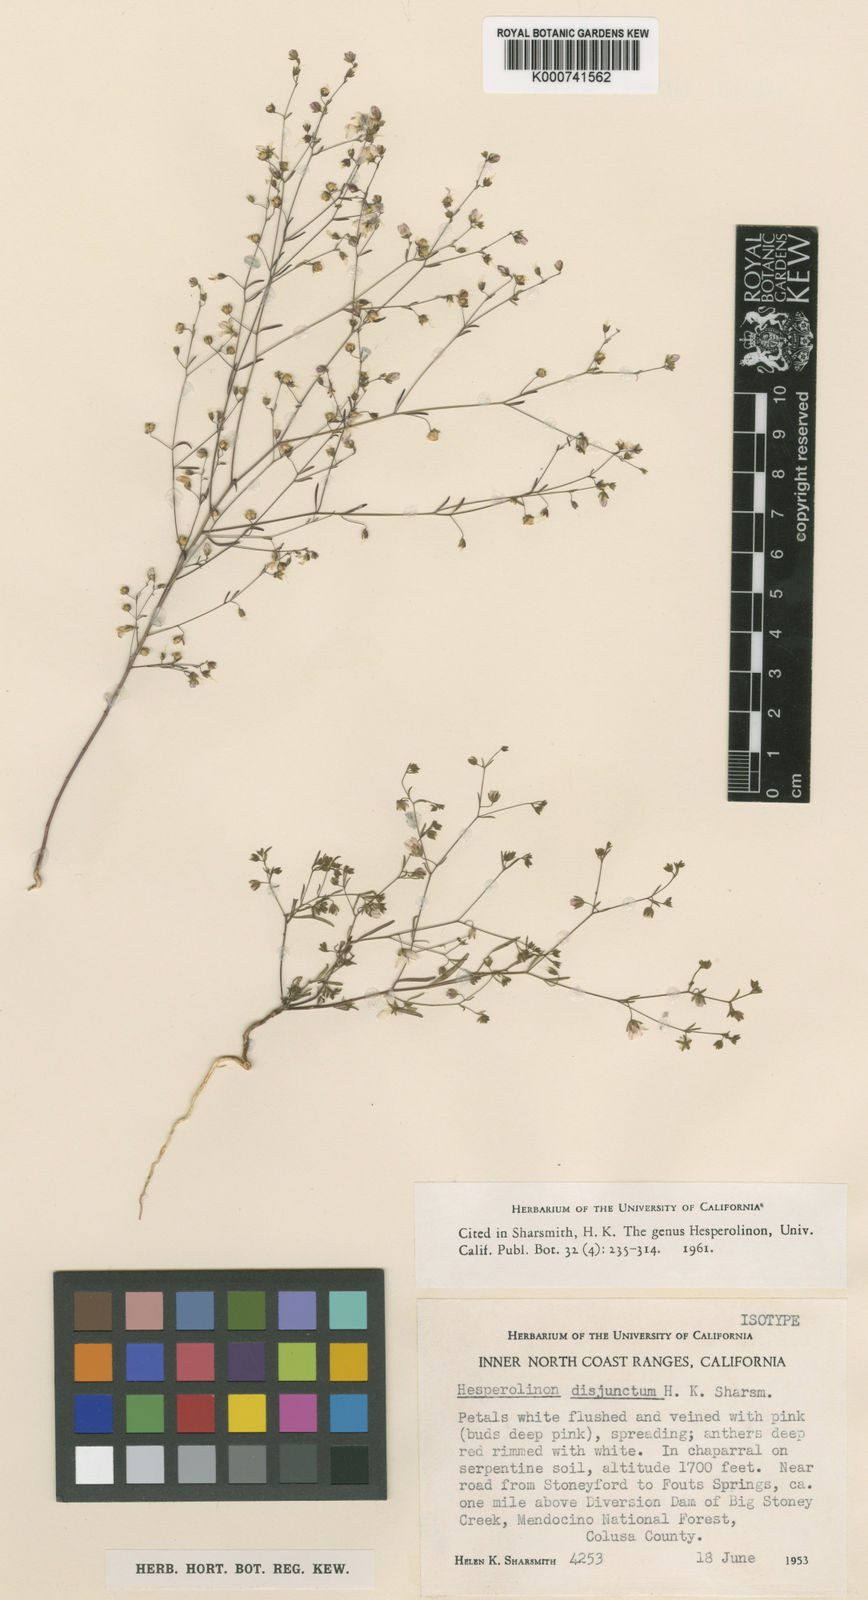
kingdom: Plantae
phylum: Tracheophyta
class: Magnoliopsida
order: Malpighiales
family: Linaceae
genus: Hesperolinon
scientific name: Hesperolinon disjunctum
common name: Coast range dwarf-flax
